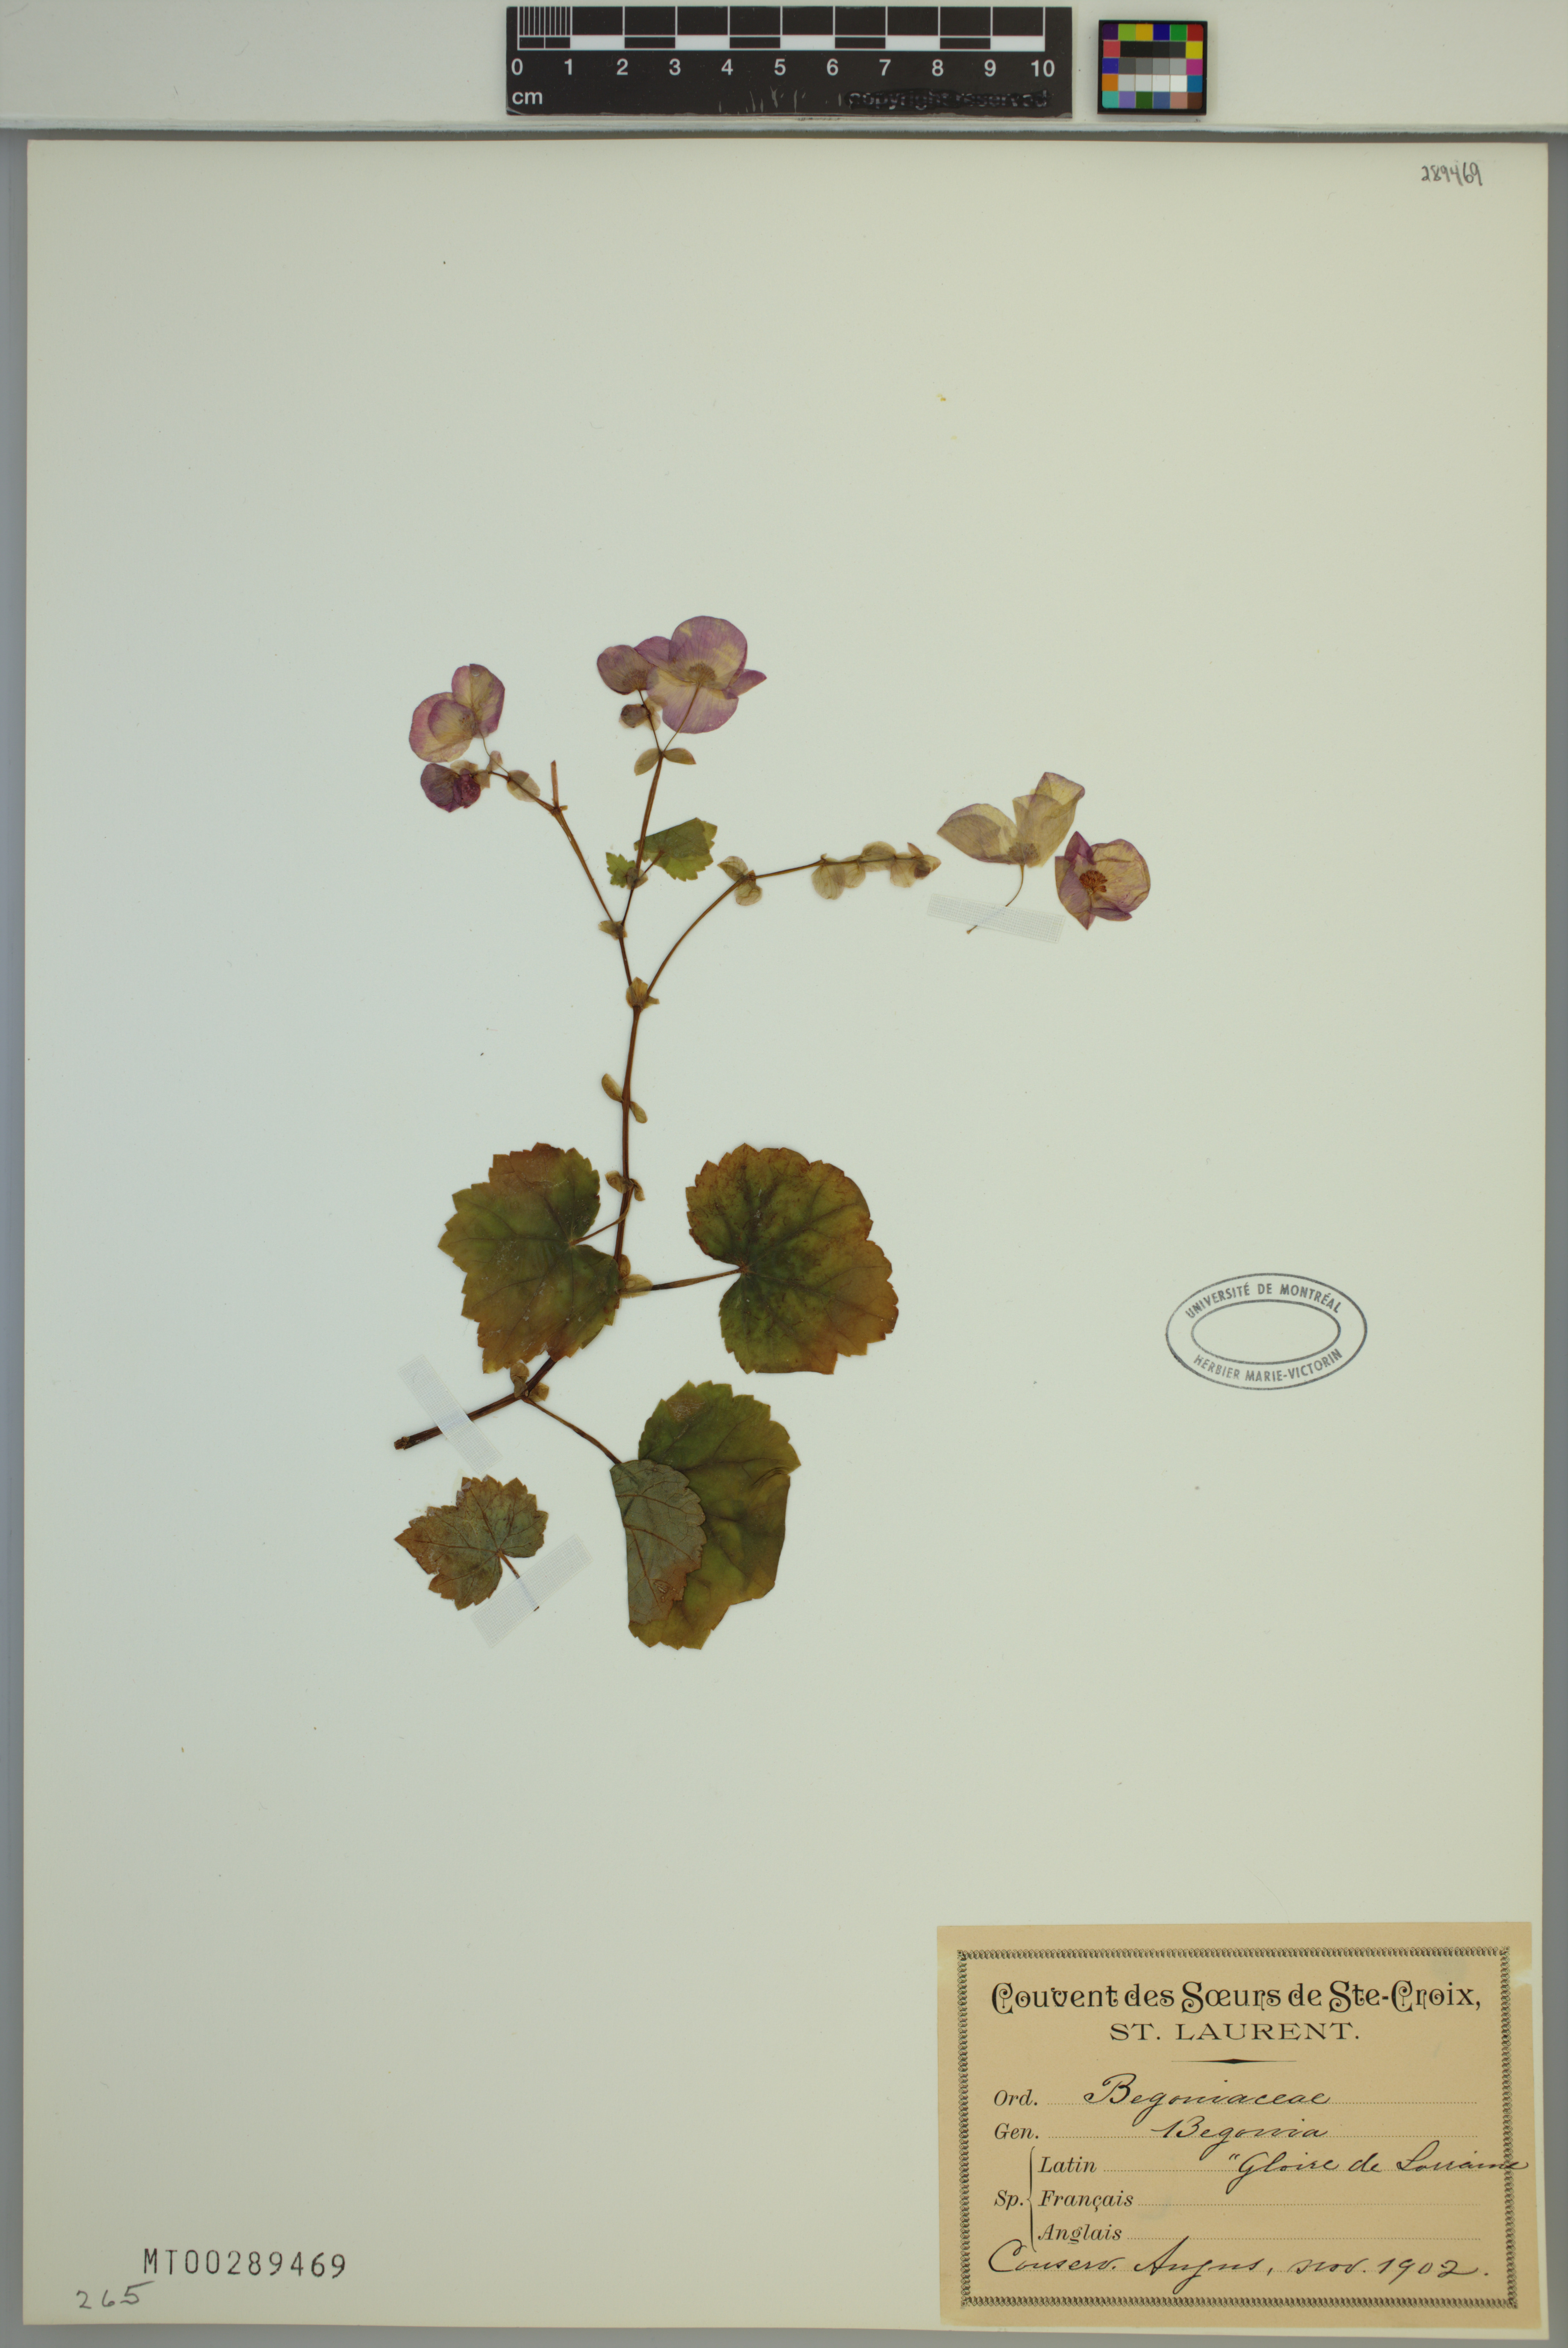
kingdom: Plantae
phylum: Tracheophyta
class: Magnoliopsida
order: Cucurbitales
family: Begoniaceae
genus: Begonia
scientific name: Begonia
